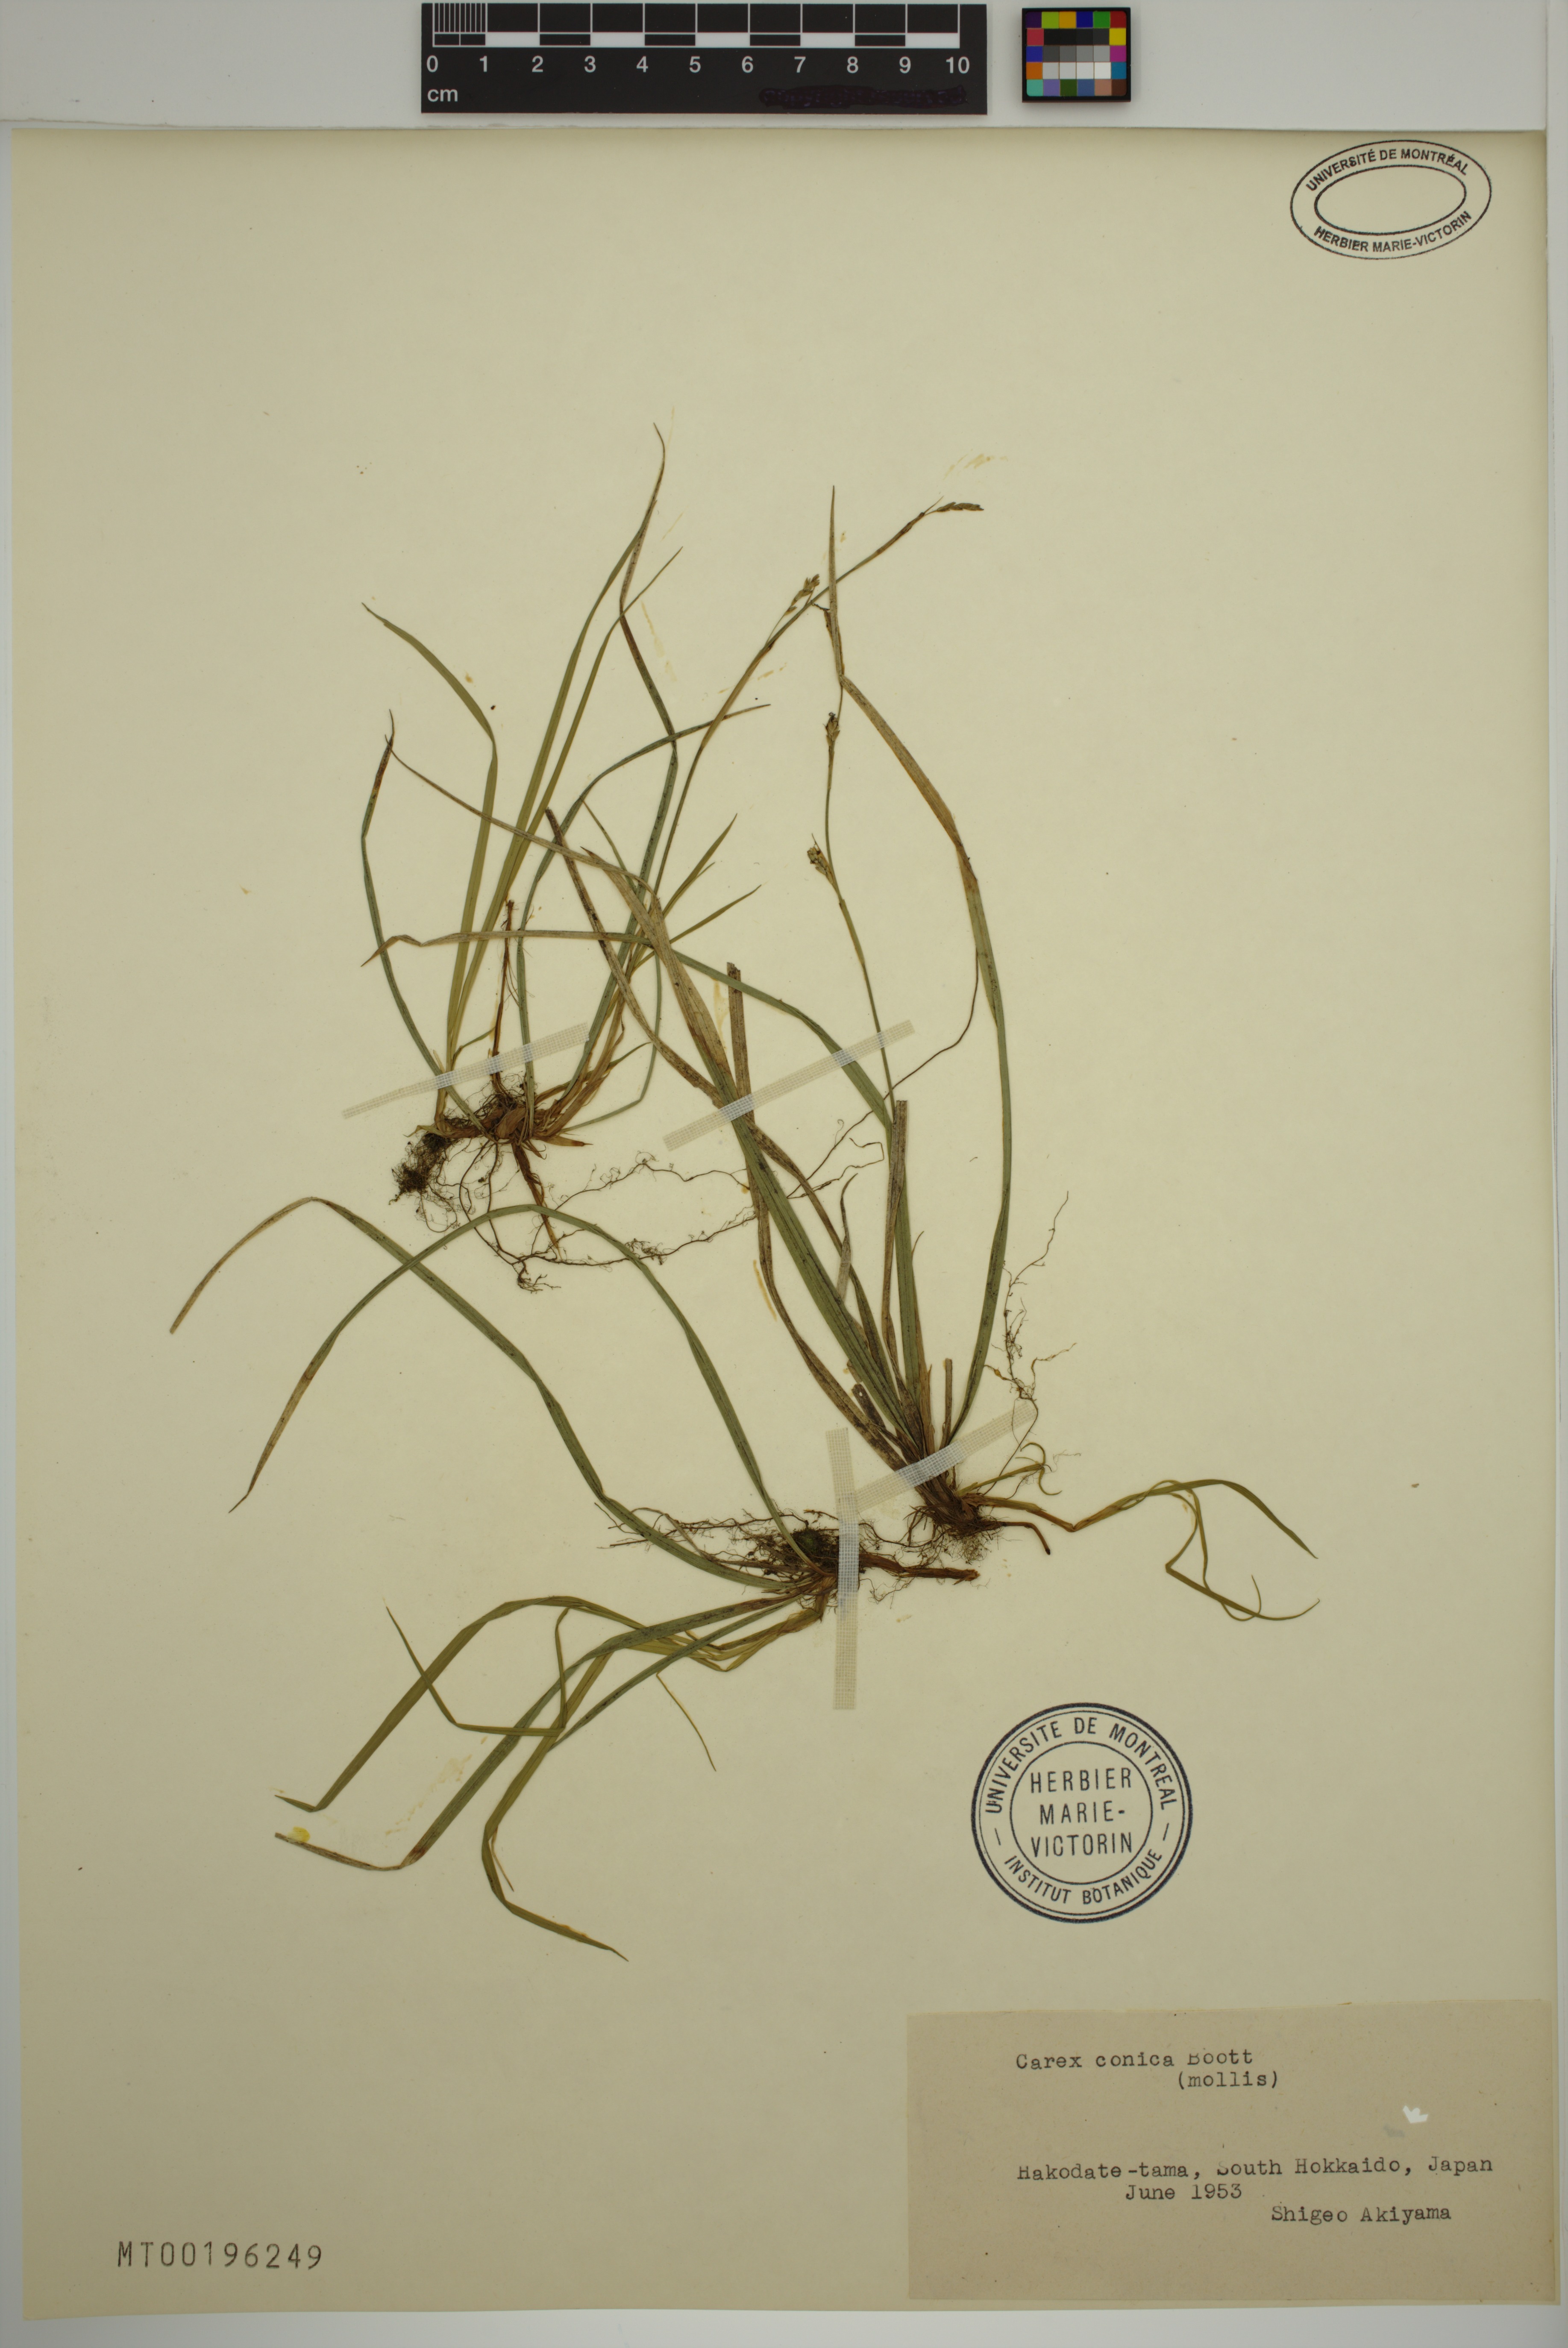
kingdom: Plantae
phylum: Tracheophyta
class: Liliopsida
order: Poales
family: Cyperaceae
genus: Carex
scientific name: Carex conica
